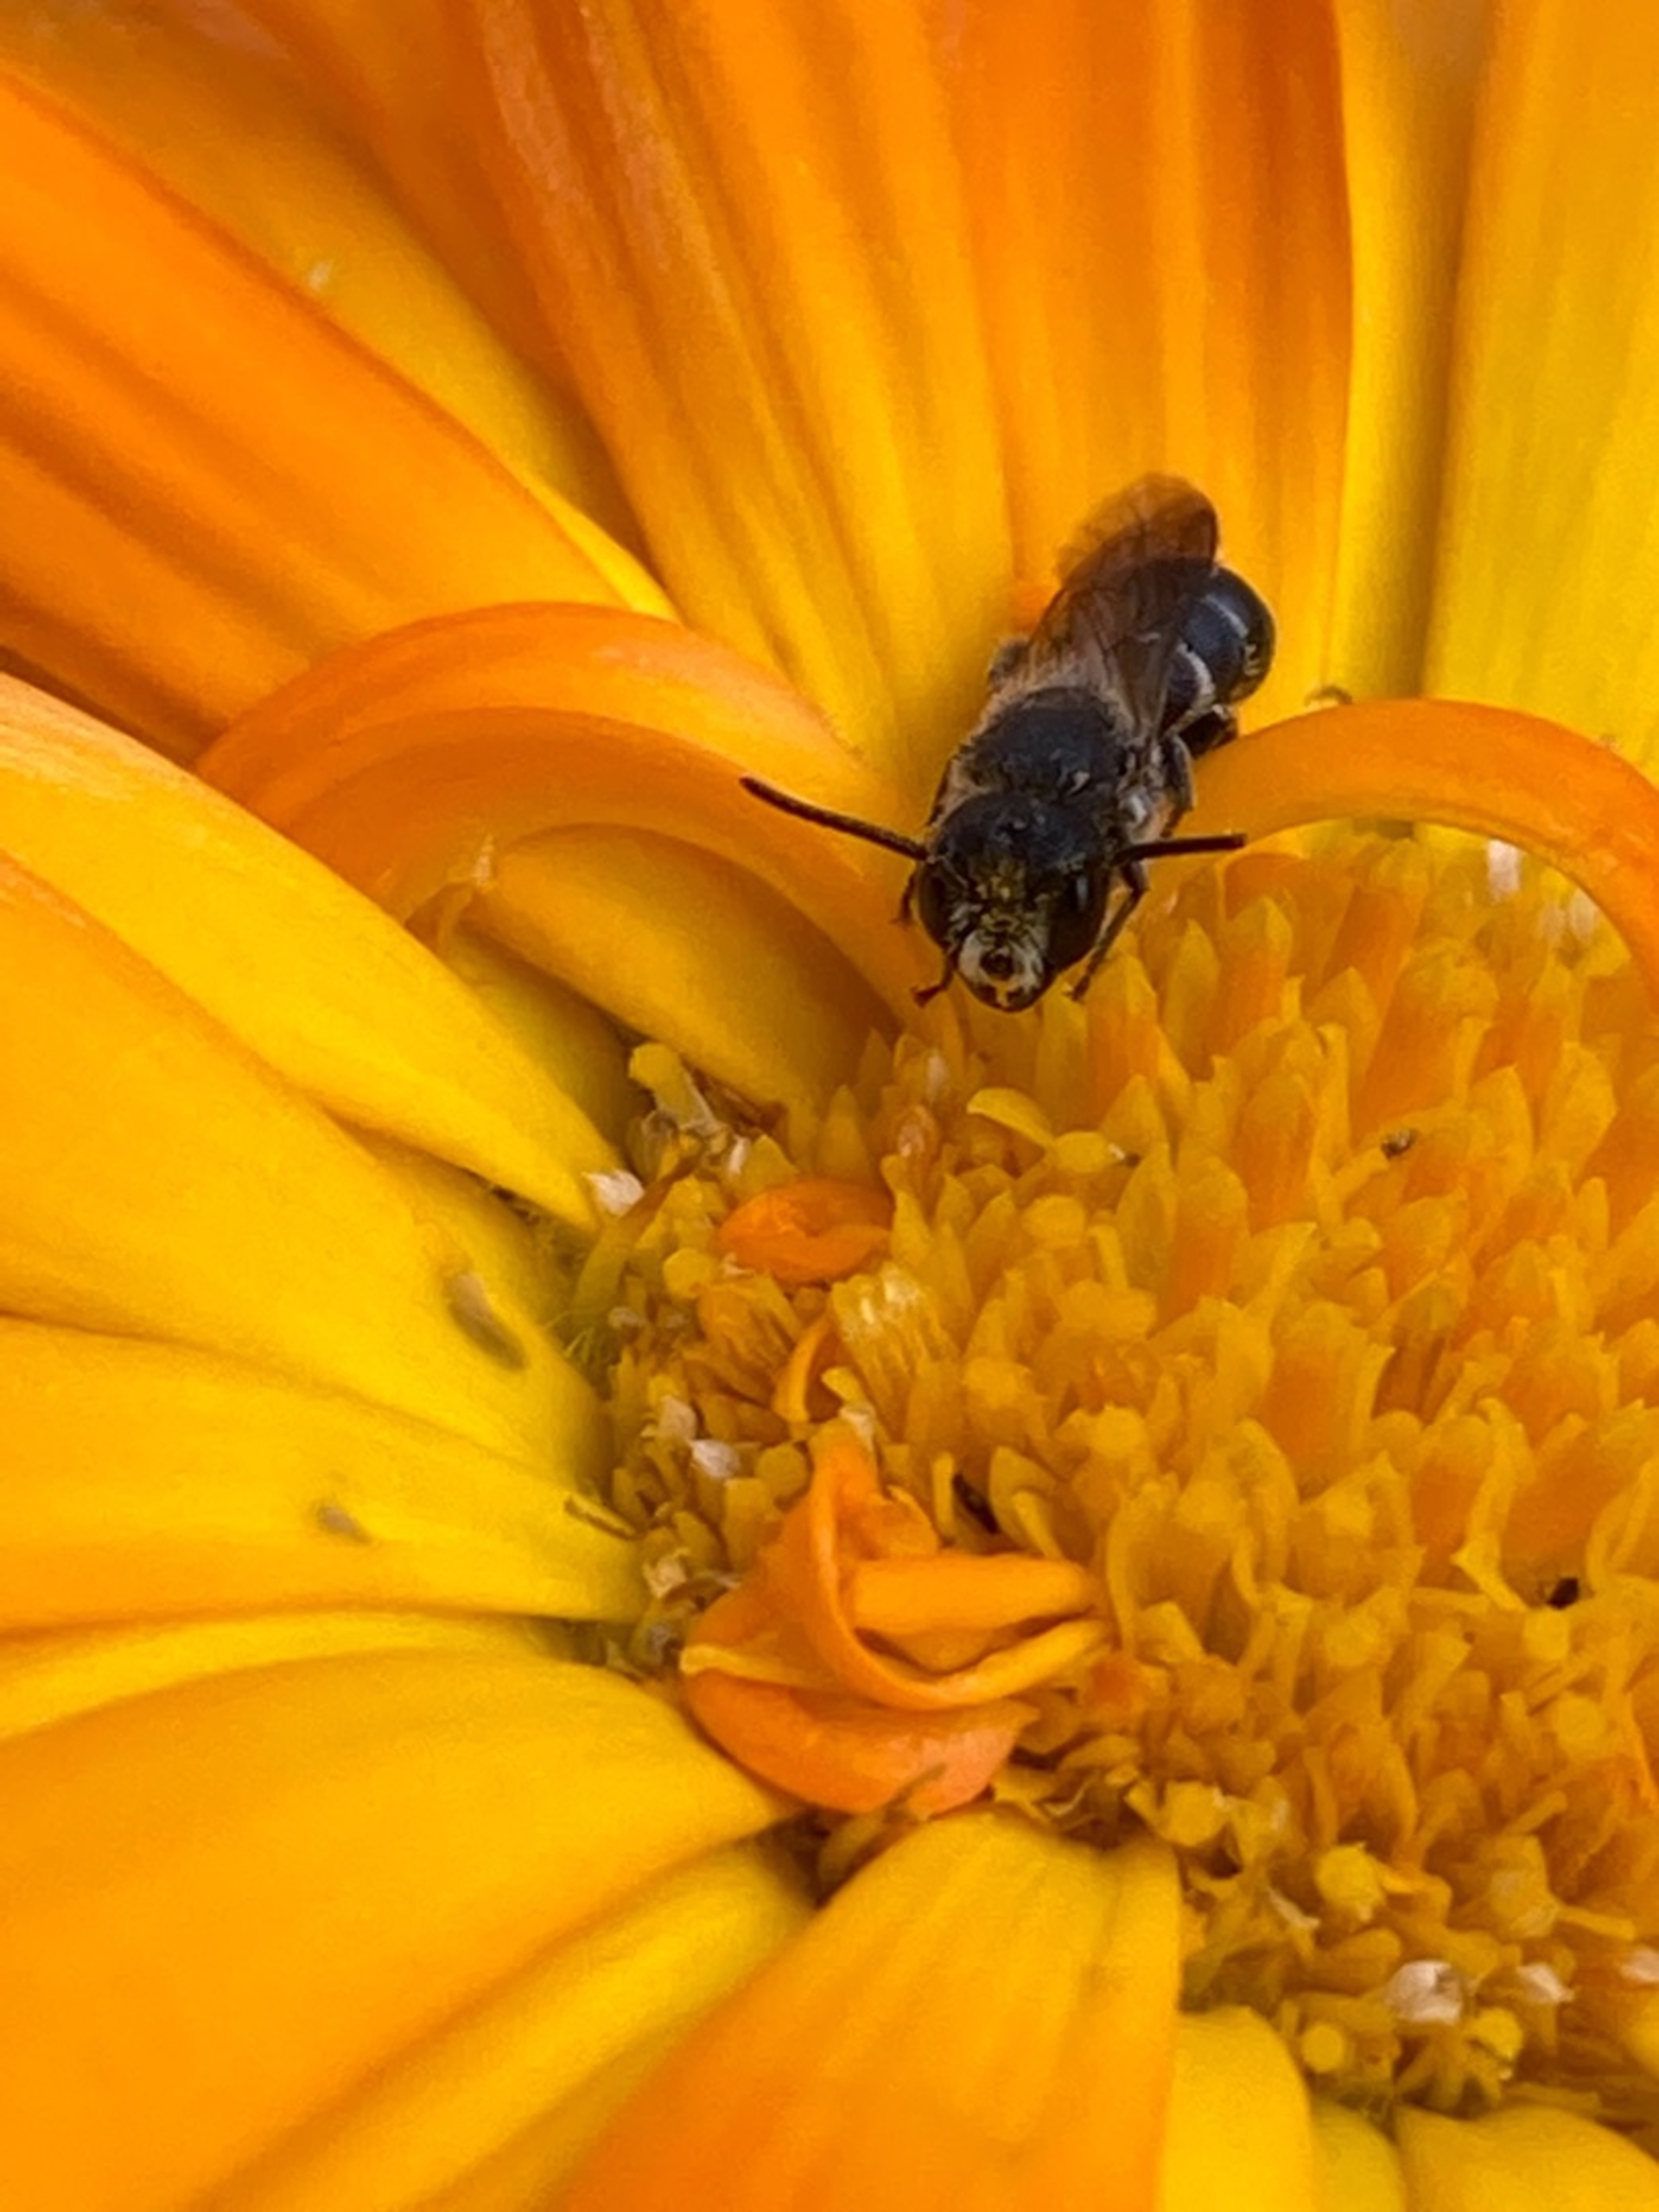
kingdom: Animalia
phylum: Arthropoda
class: Insecta
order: Hymenoptera
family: Megachilidae
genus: Heriades
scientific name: Heriades truncorum
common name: Hulbi
